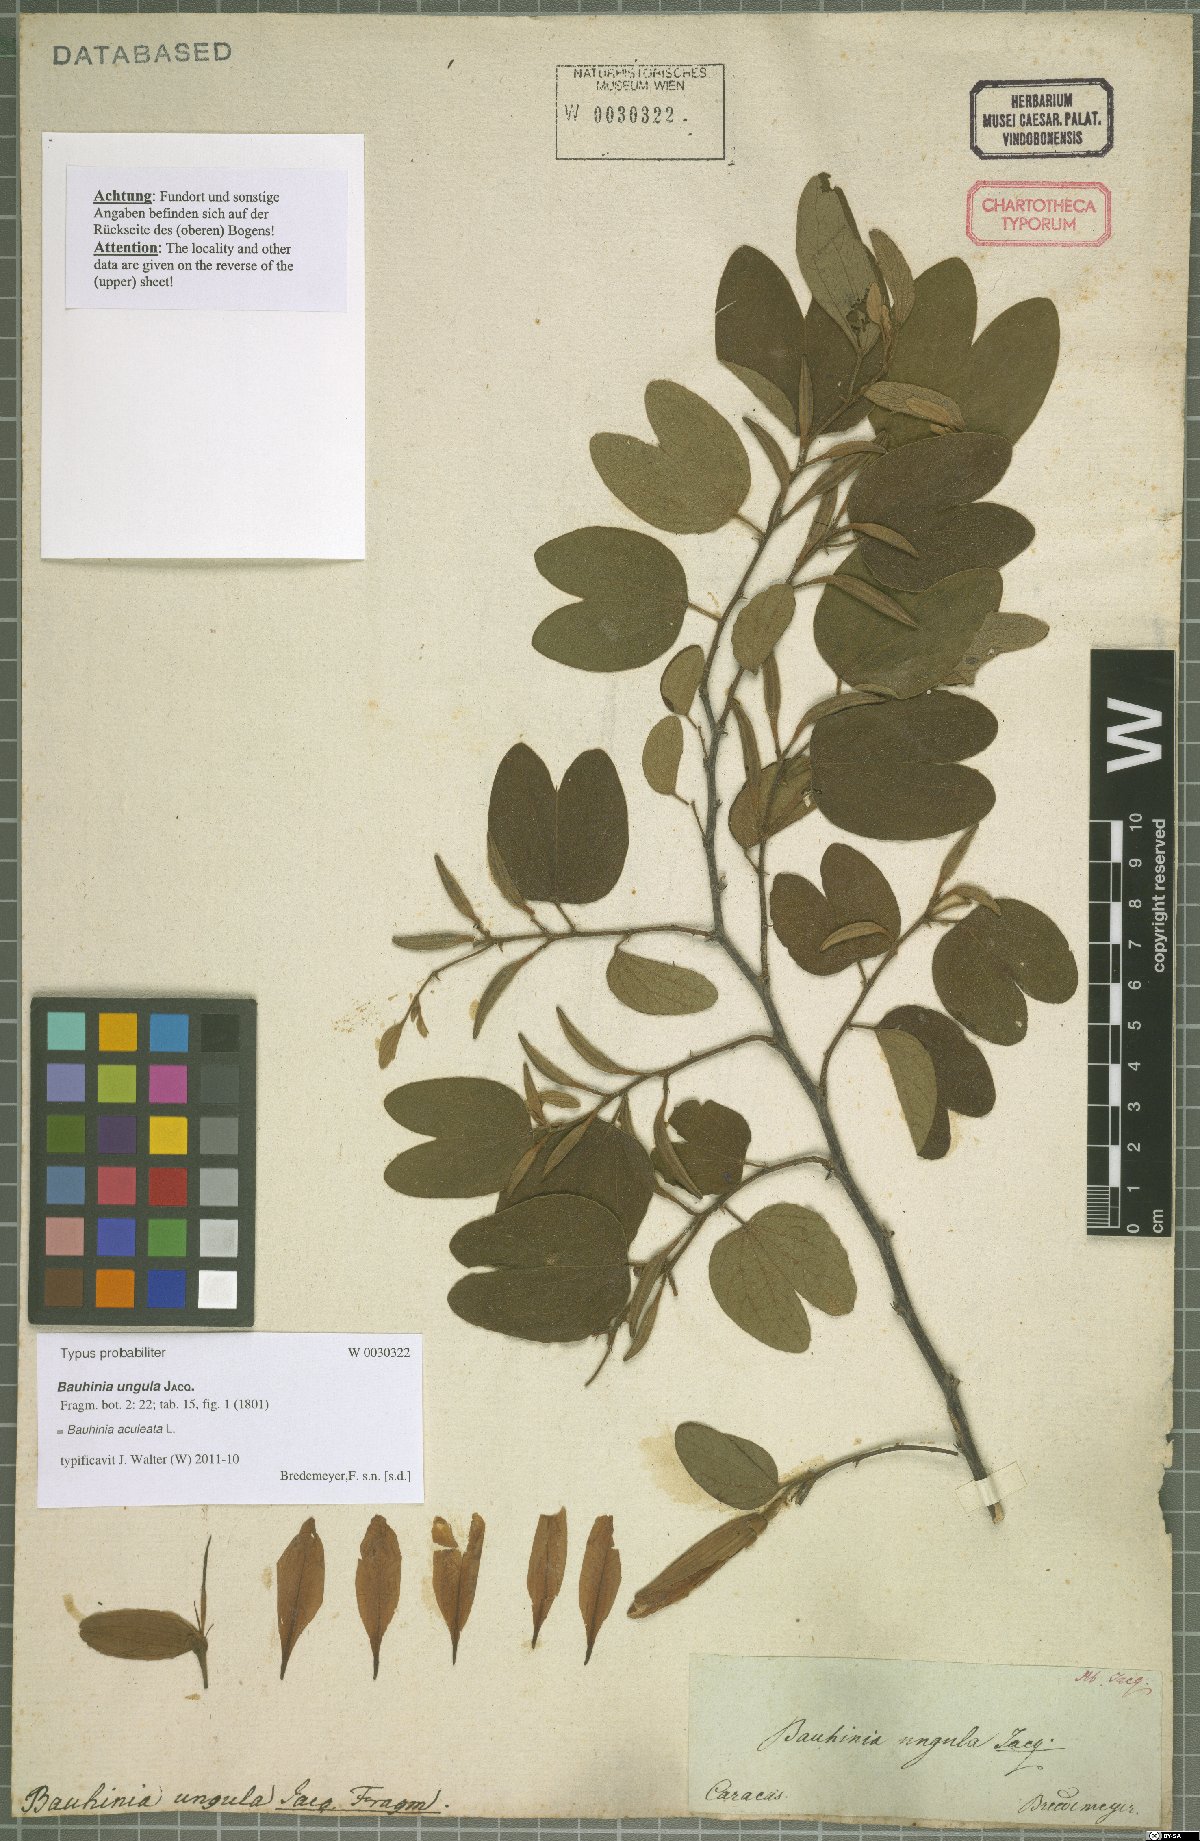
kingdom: Plantae
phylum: Tracheophyta
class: Magnoliopsida
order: Fabales
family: Fabaceae
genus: Bauhinia
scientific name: Bauhinia aculeata
